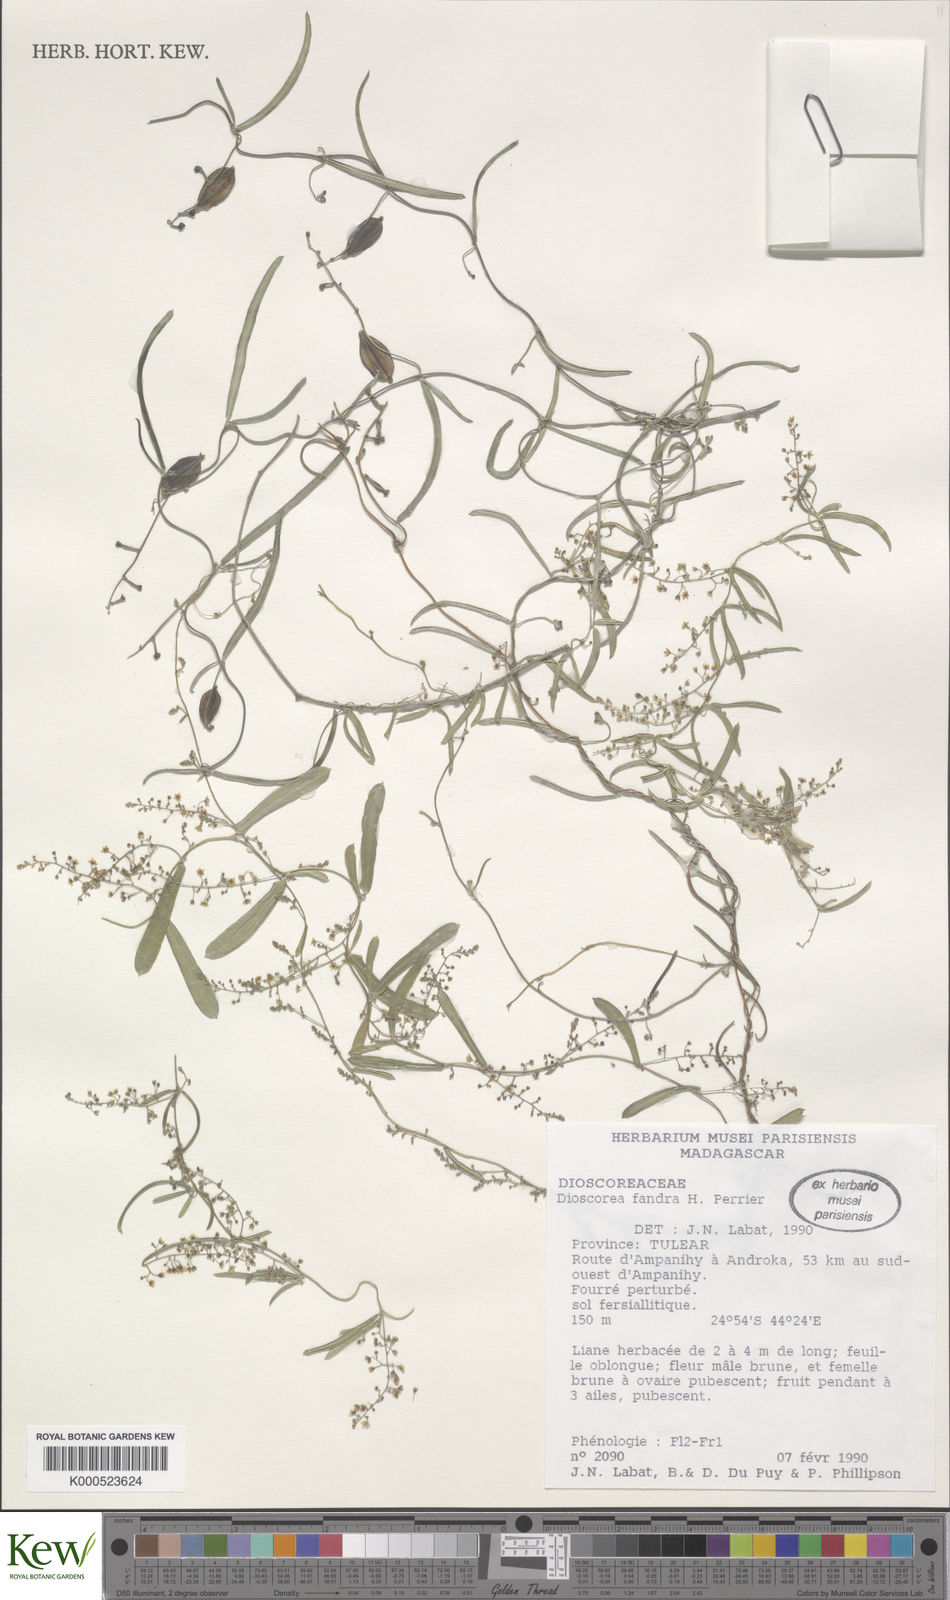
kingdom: Plantae
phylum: Tracheophyta
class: Liliopsida
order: Dioscoreales
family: Dioscoreaceae
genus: Dioscorea
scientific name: Dioscorea fandra
